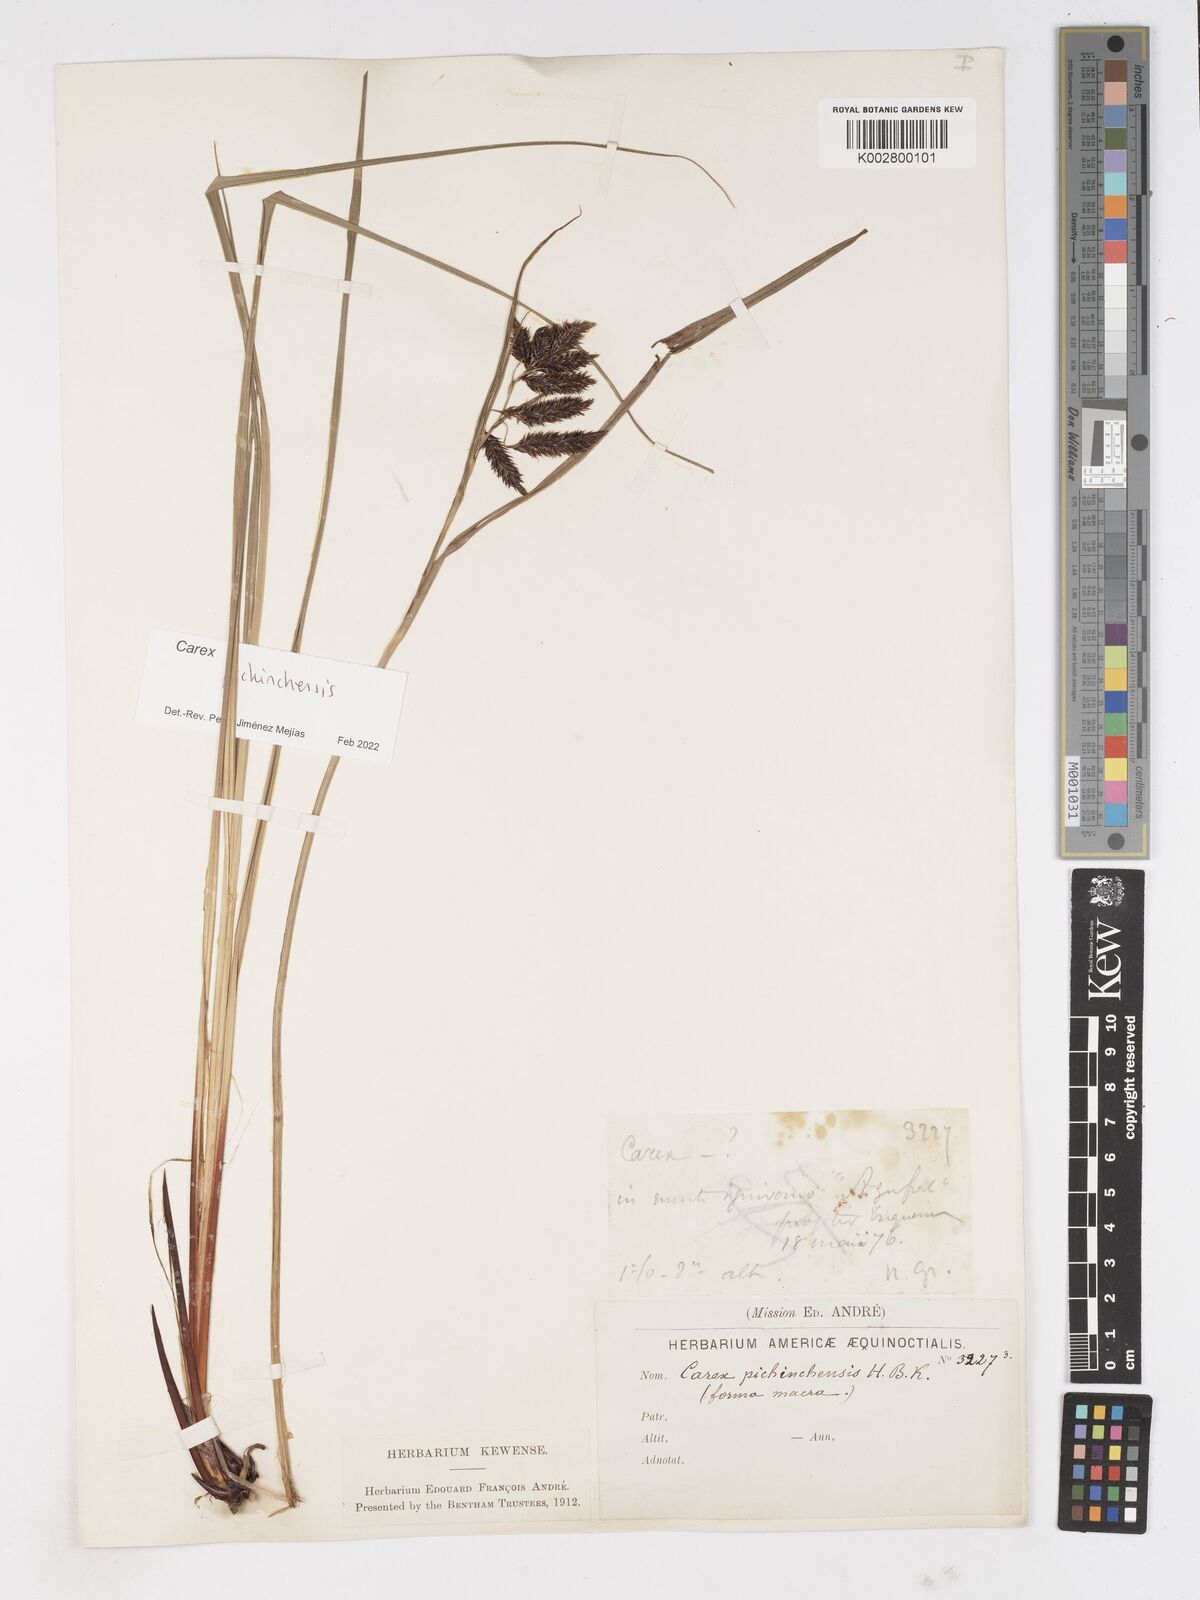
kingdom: Plantae
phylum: Tracheophyta
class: Liliopsida
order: Poales
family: Cyperaceae
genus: Carex
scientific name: Carex pichinchensis
